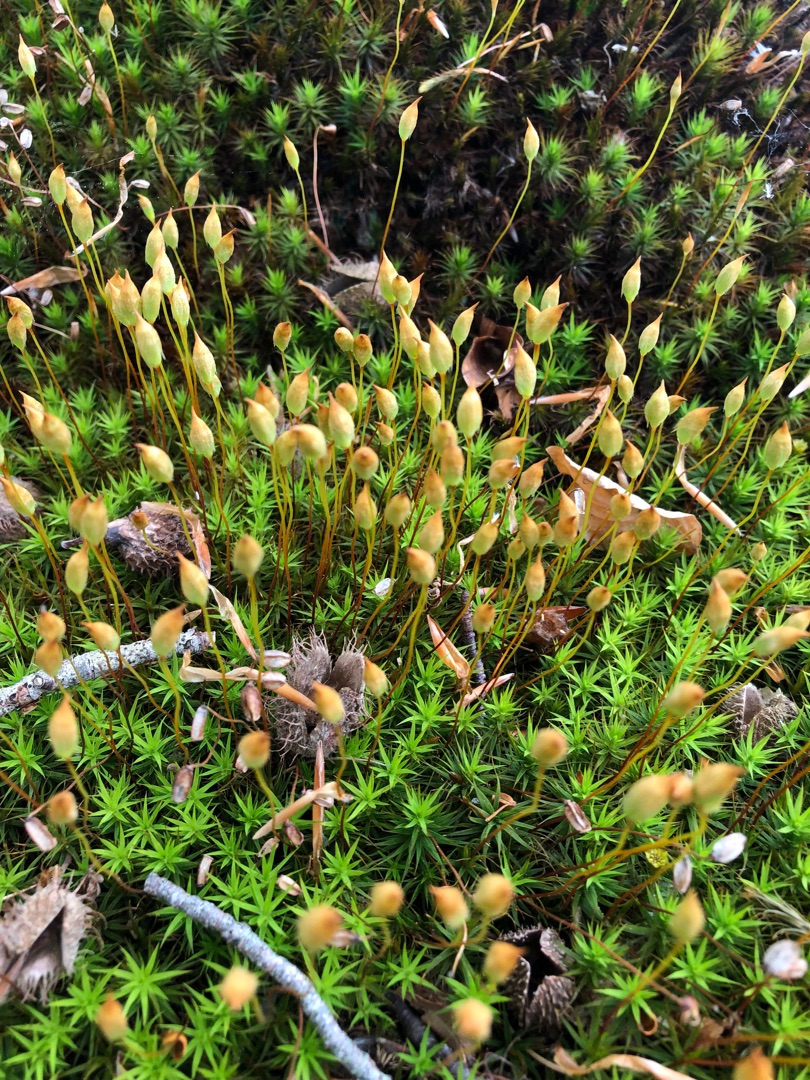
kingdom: Plantae
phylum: Bryophyta
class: Polytrichopsida
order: Polytrichales
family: Polytrichaceae
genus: Polytrichum
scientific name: Polytrichum formosum
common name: Skov-jomfruhår
